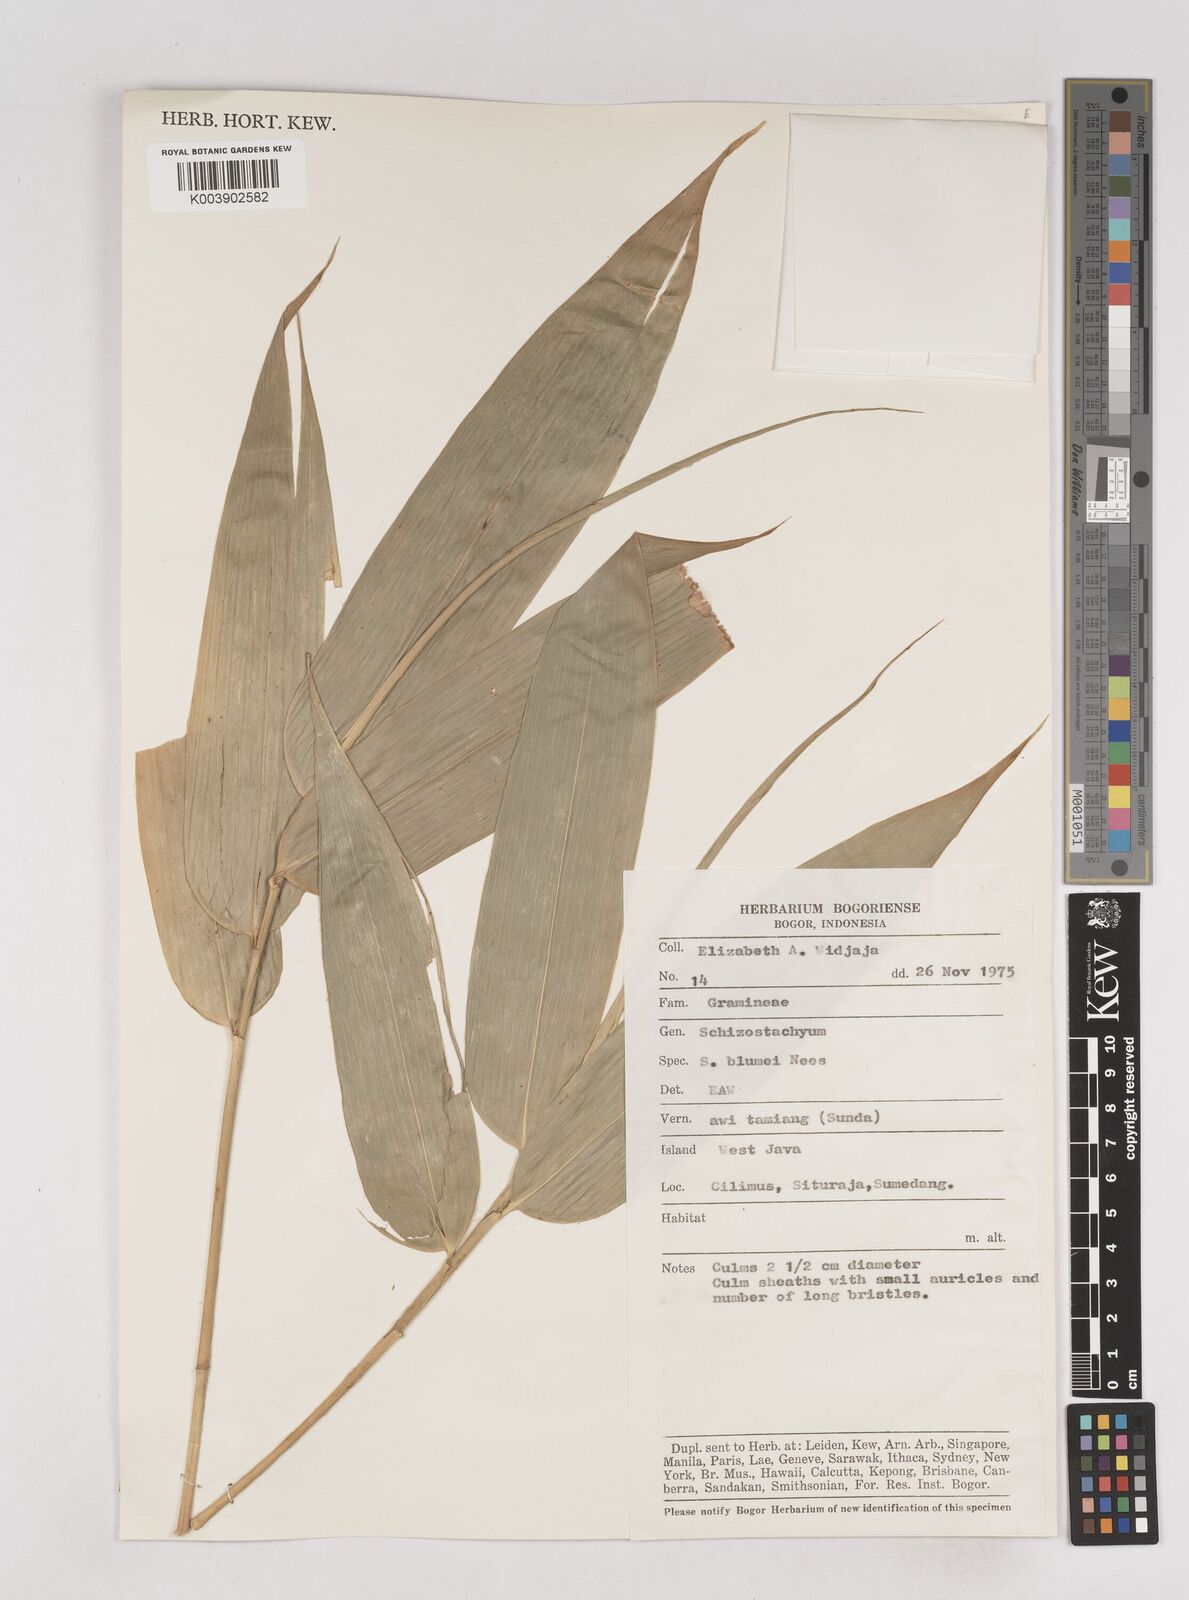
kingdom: Plantae
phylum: Tracheophyta
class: Liliopsida
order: Poales
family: Poaceae
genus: Schizostachyum
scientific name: Schizostachyum
